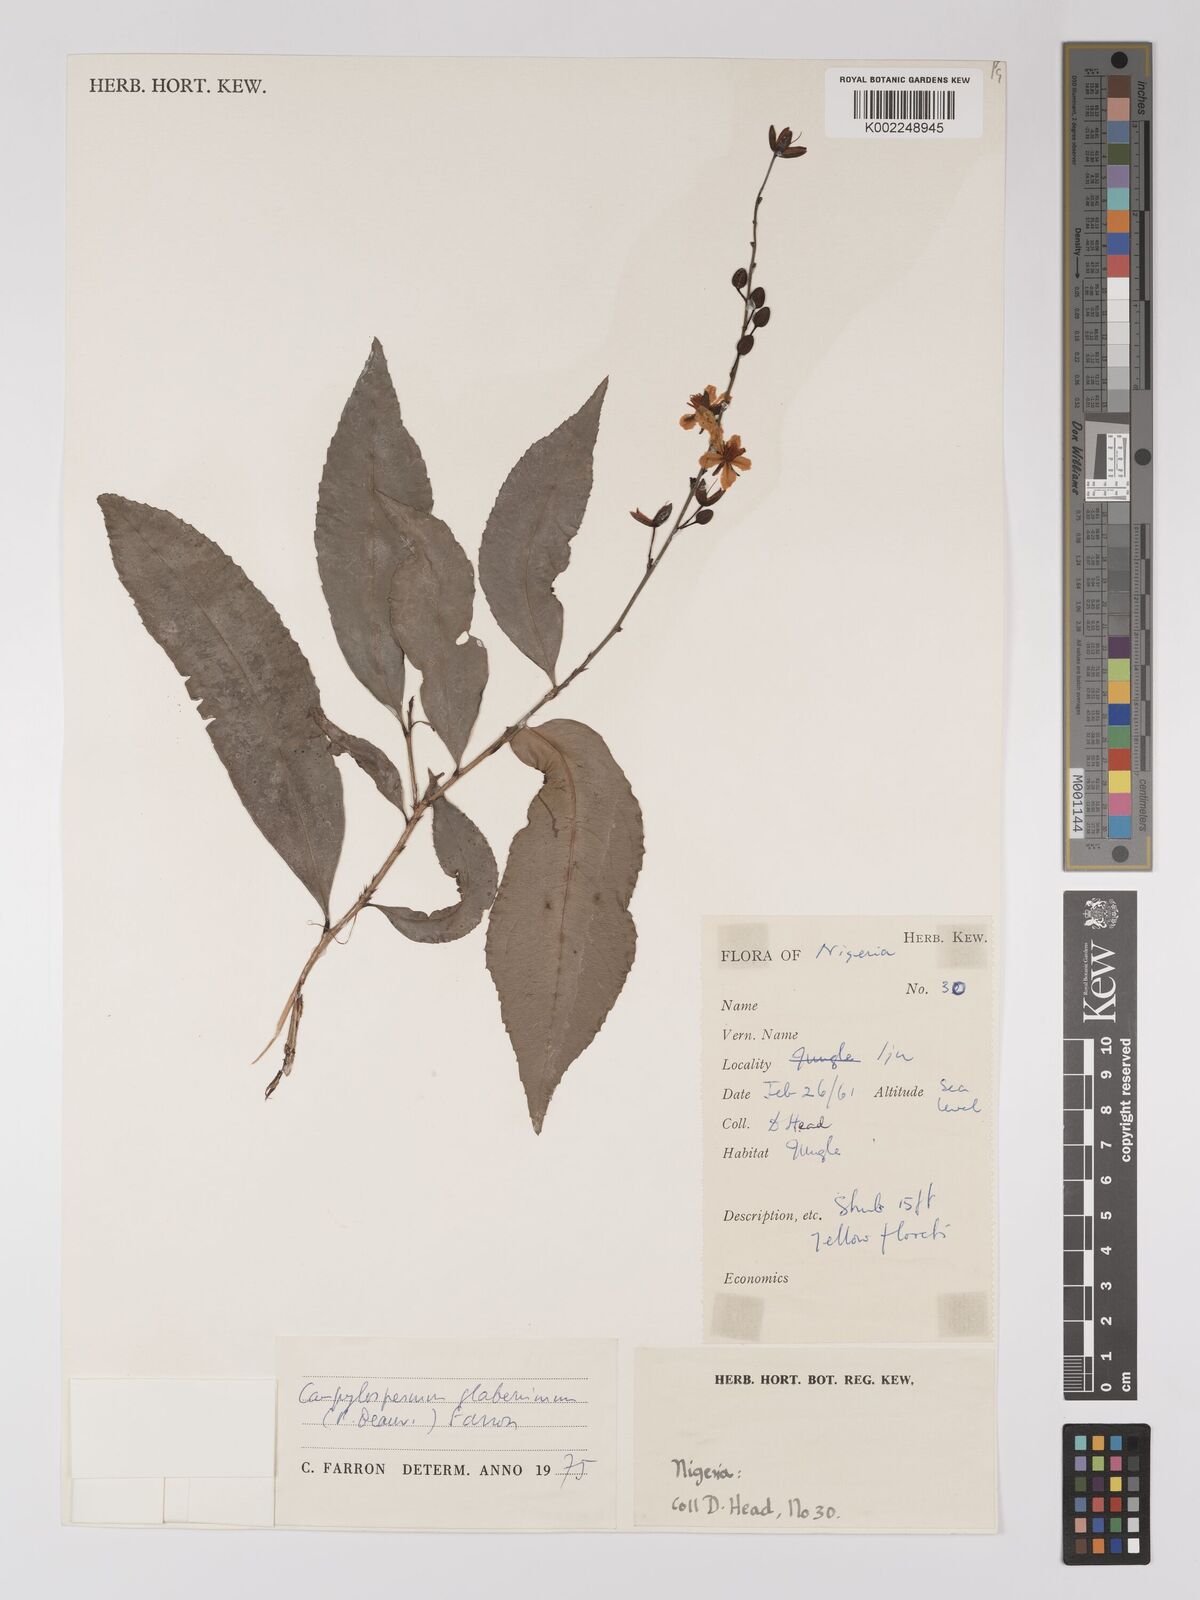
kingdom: Plantae
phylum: Tracheophyta
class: Magnoliopsida
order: Malpighiales
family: Ochnaceae
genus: Campylospermum
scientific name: Campylospermum glaberrimum
